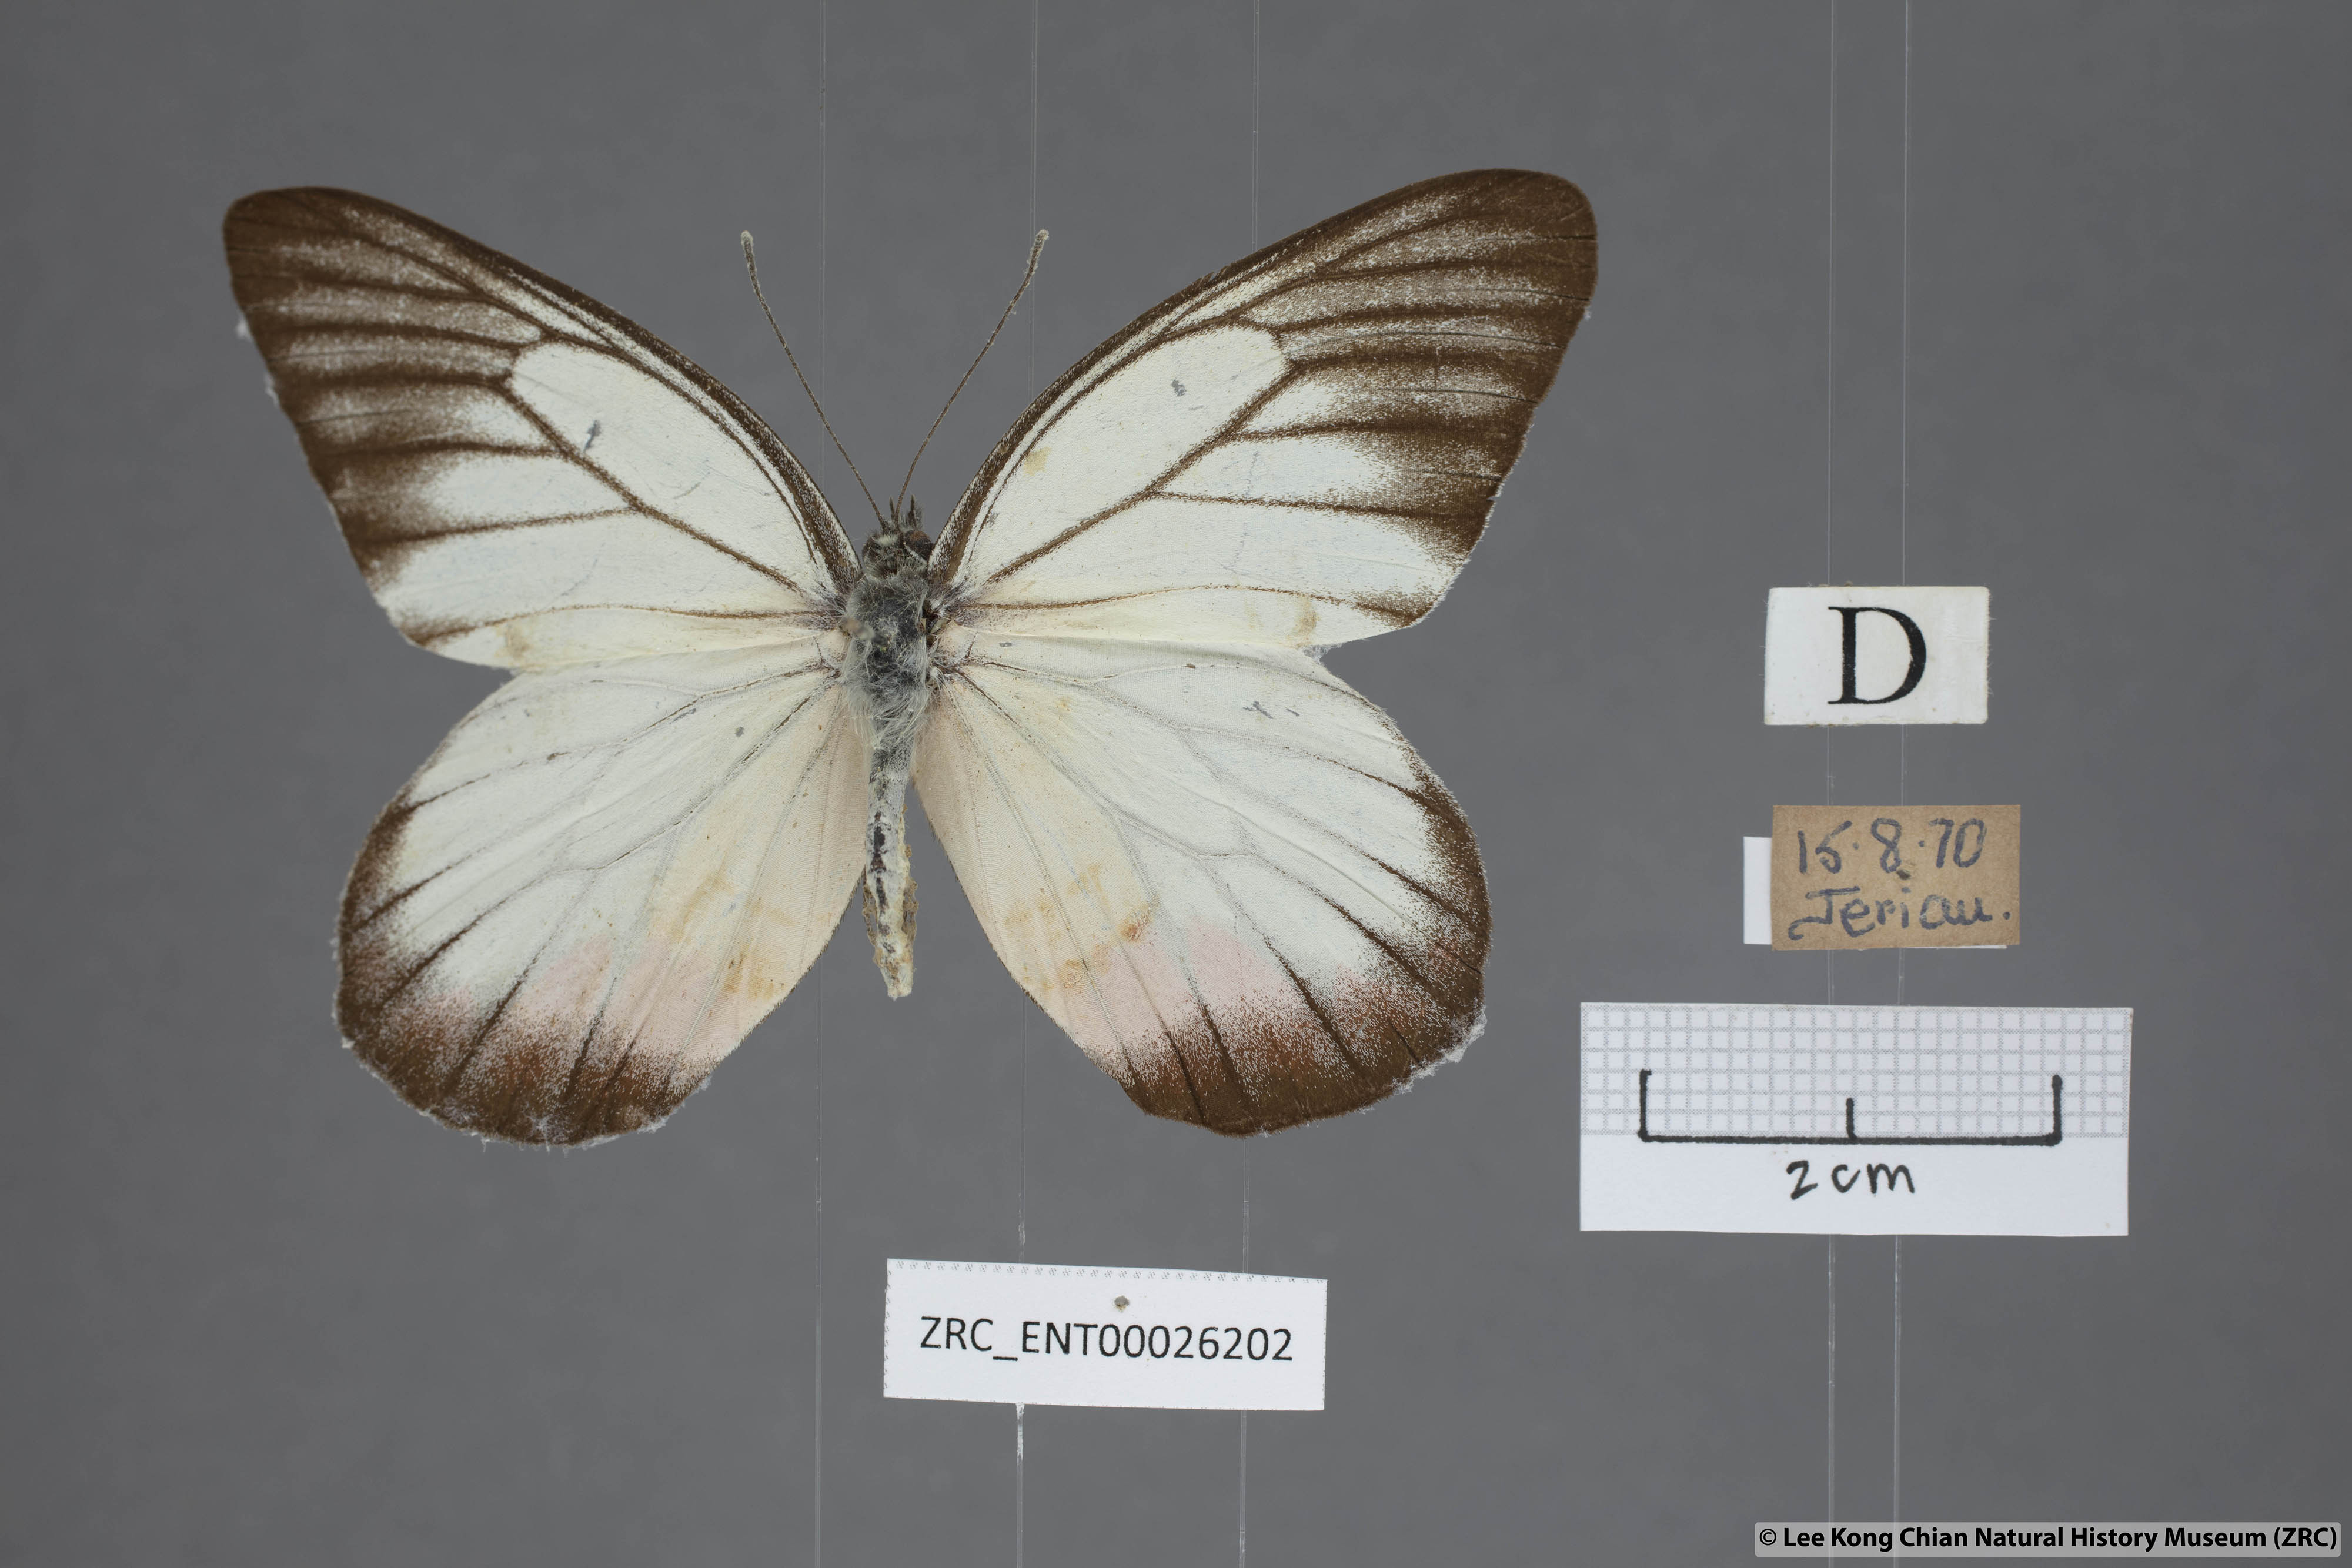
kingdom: Animalia
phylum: Arthropoda
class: Insecta
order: Lepidoptera
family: Pieridae
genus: Delias
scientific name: Delias hyparete
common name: Painted jezebel
